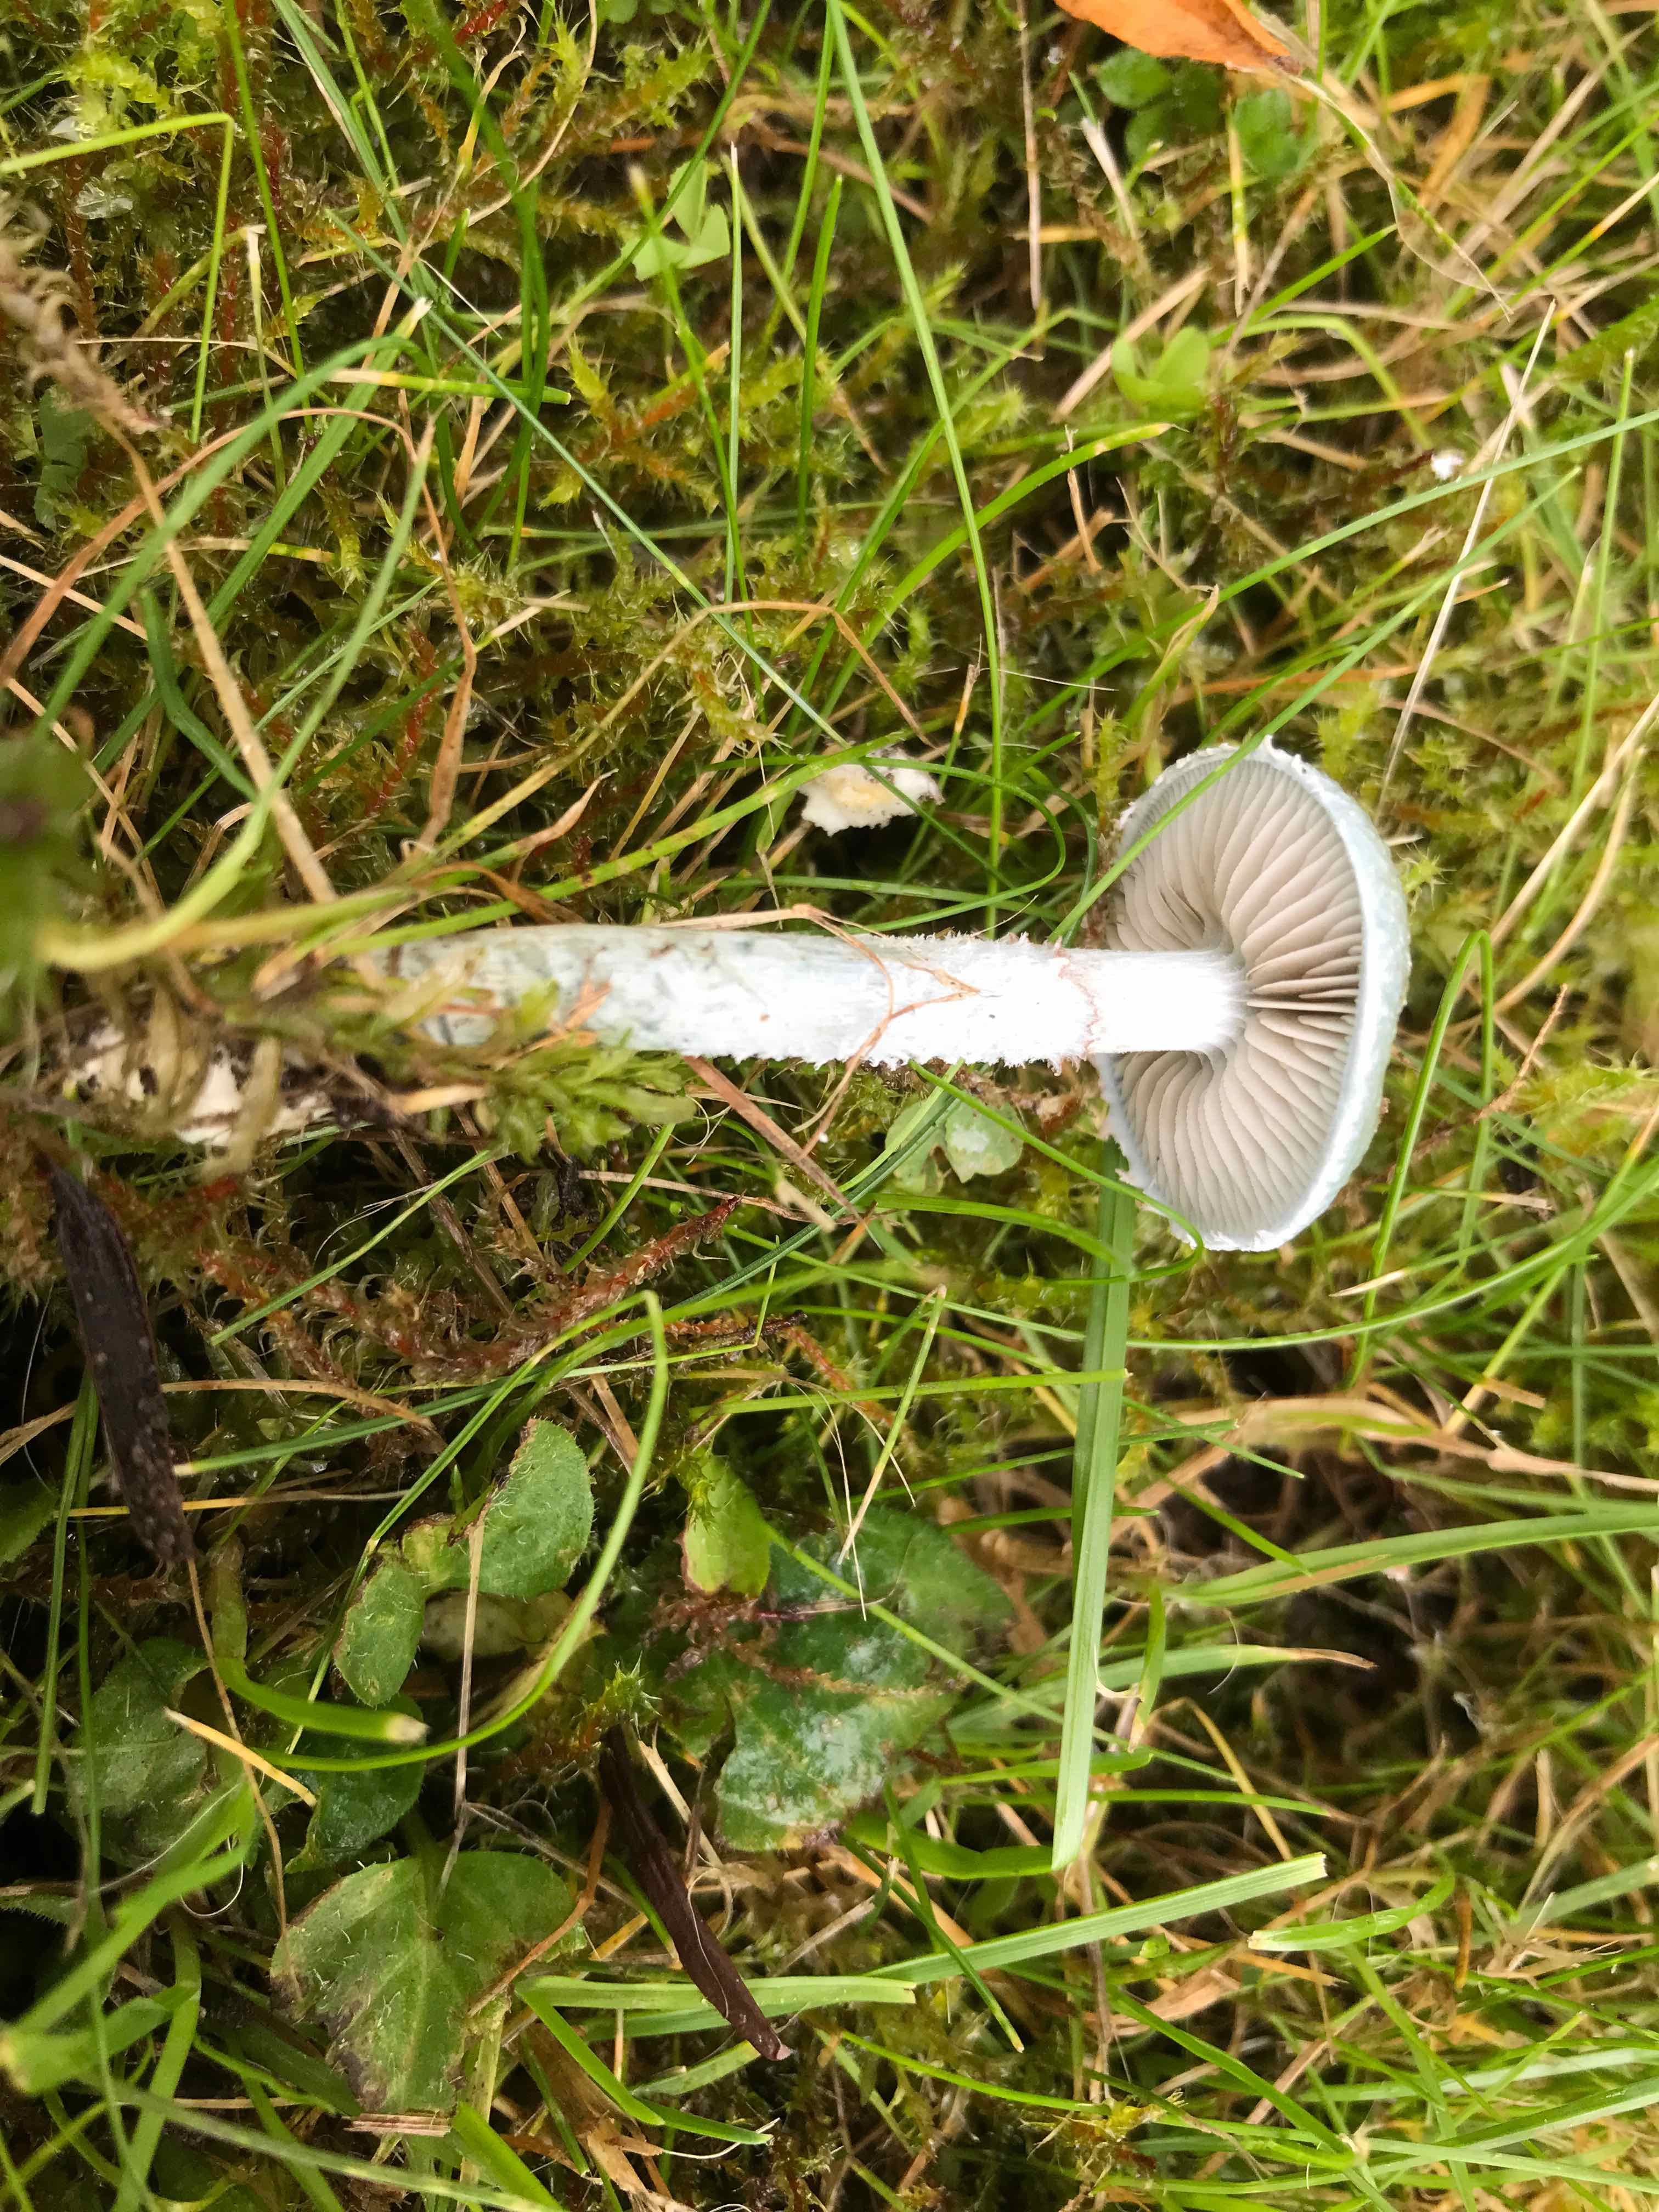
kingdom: Fungi
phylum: Basidiomycota
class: Agaricomycetes
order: Agaricales
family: Strophariaceae
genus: Stropharia
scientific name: Stropharia cyanea
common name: blågrøn bredblad
